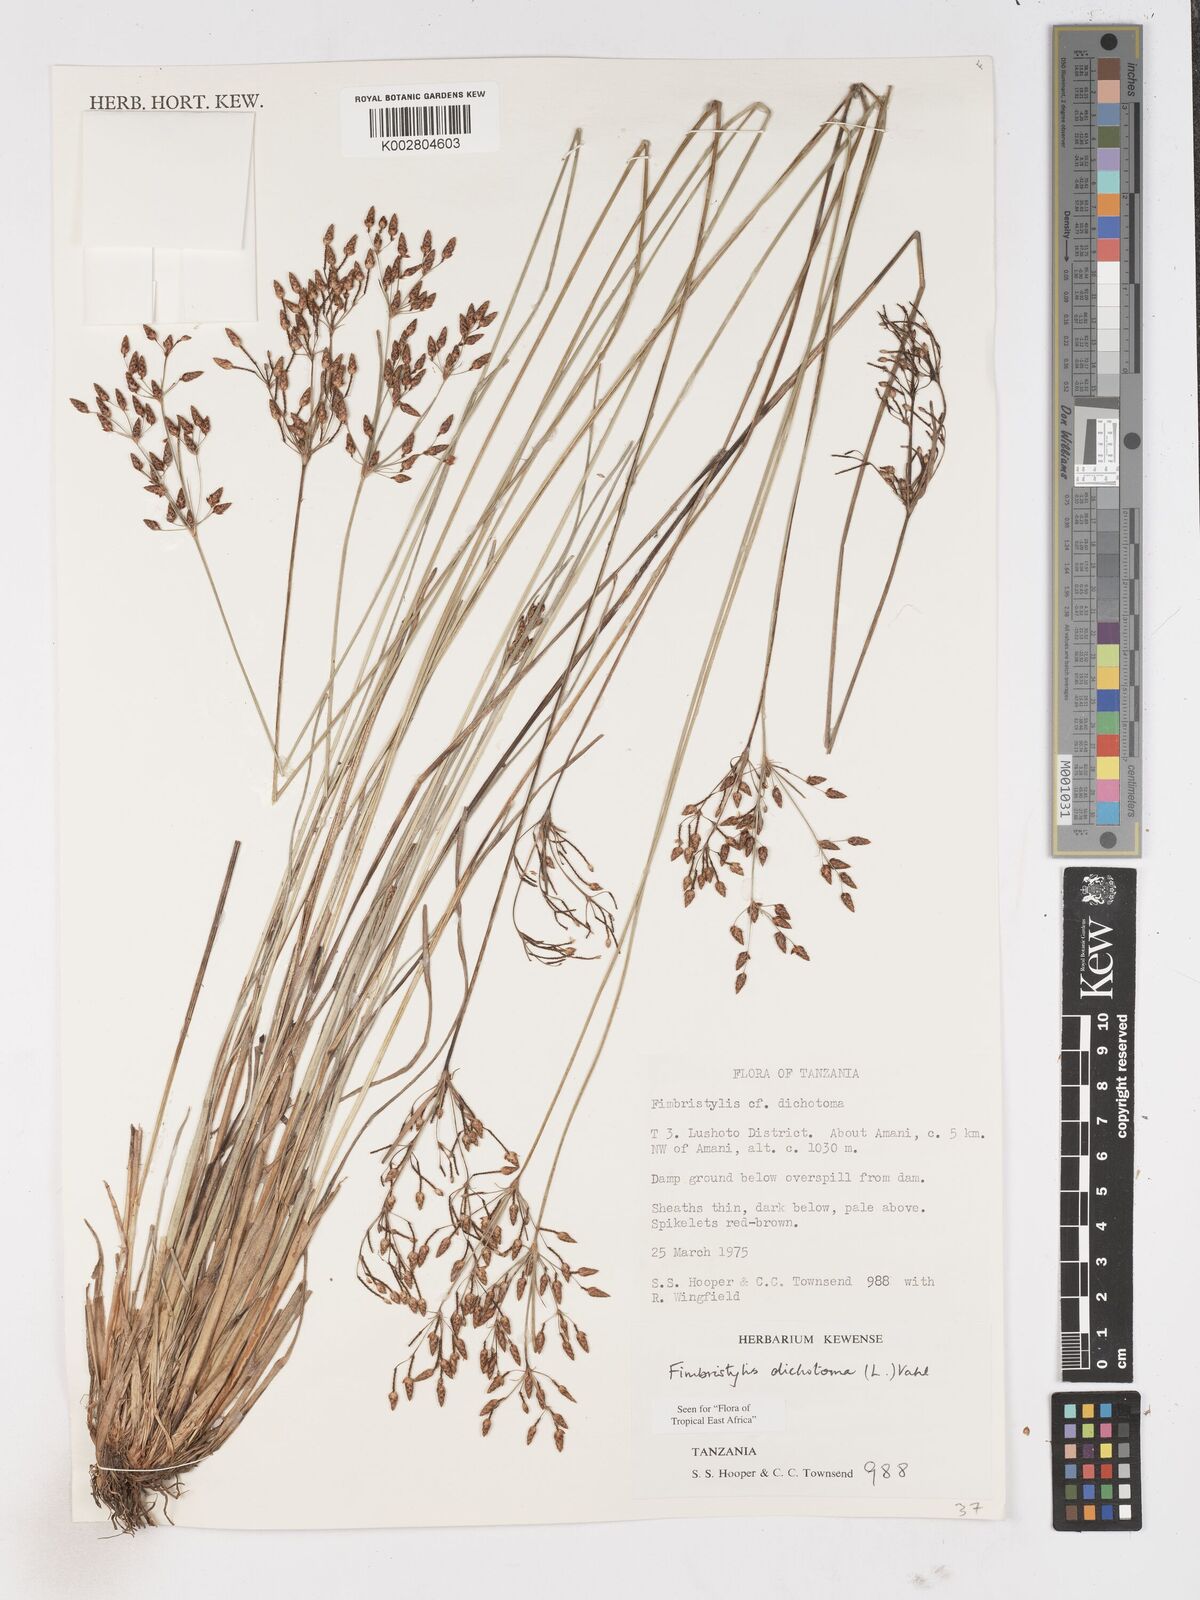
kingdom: Plantae
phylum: Tracheophyta
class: Liliopsida
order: Poales
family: Cyperaceae
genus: Fimbristylis
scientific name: Fimbristylis dichotoma
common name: Forked fimbry
